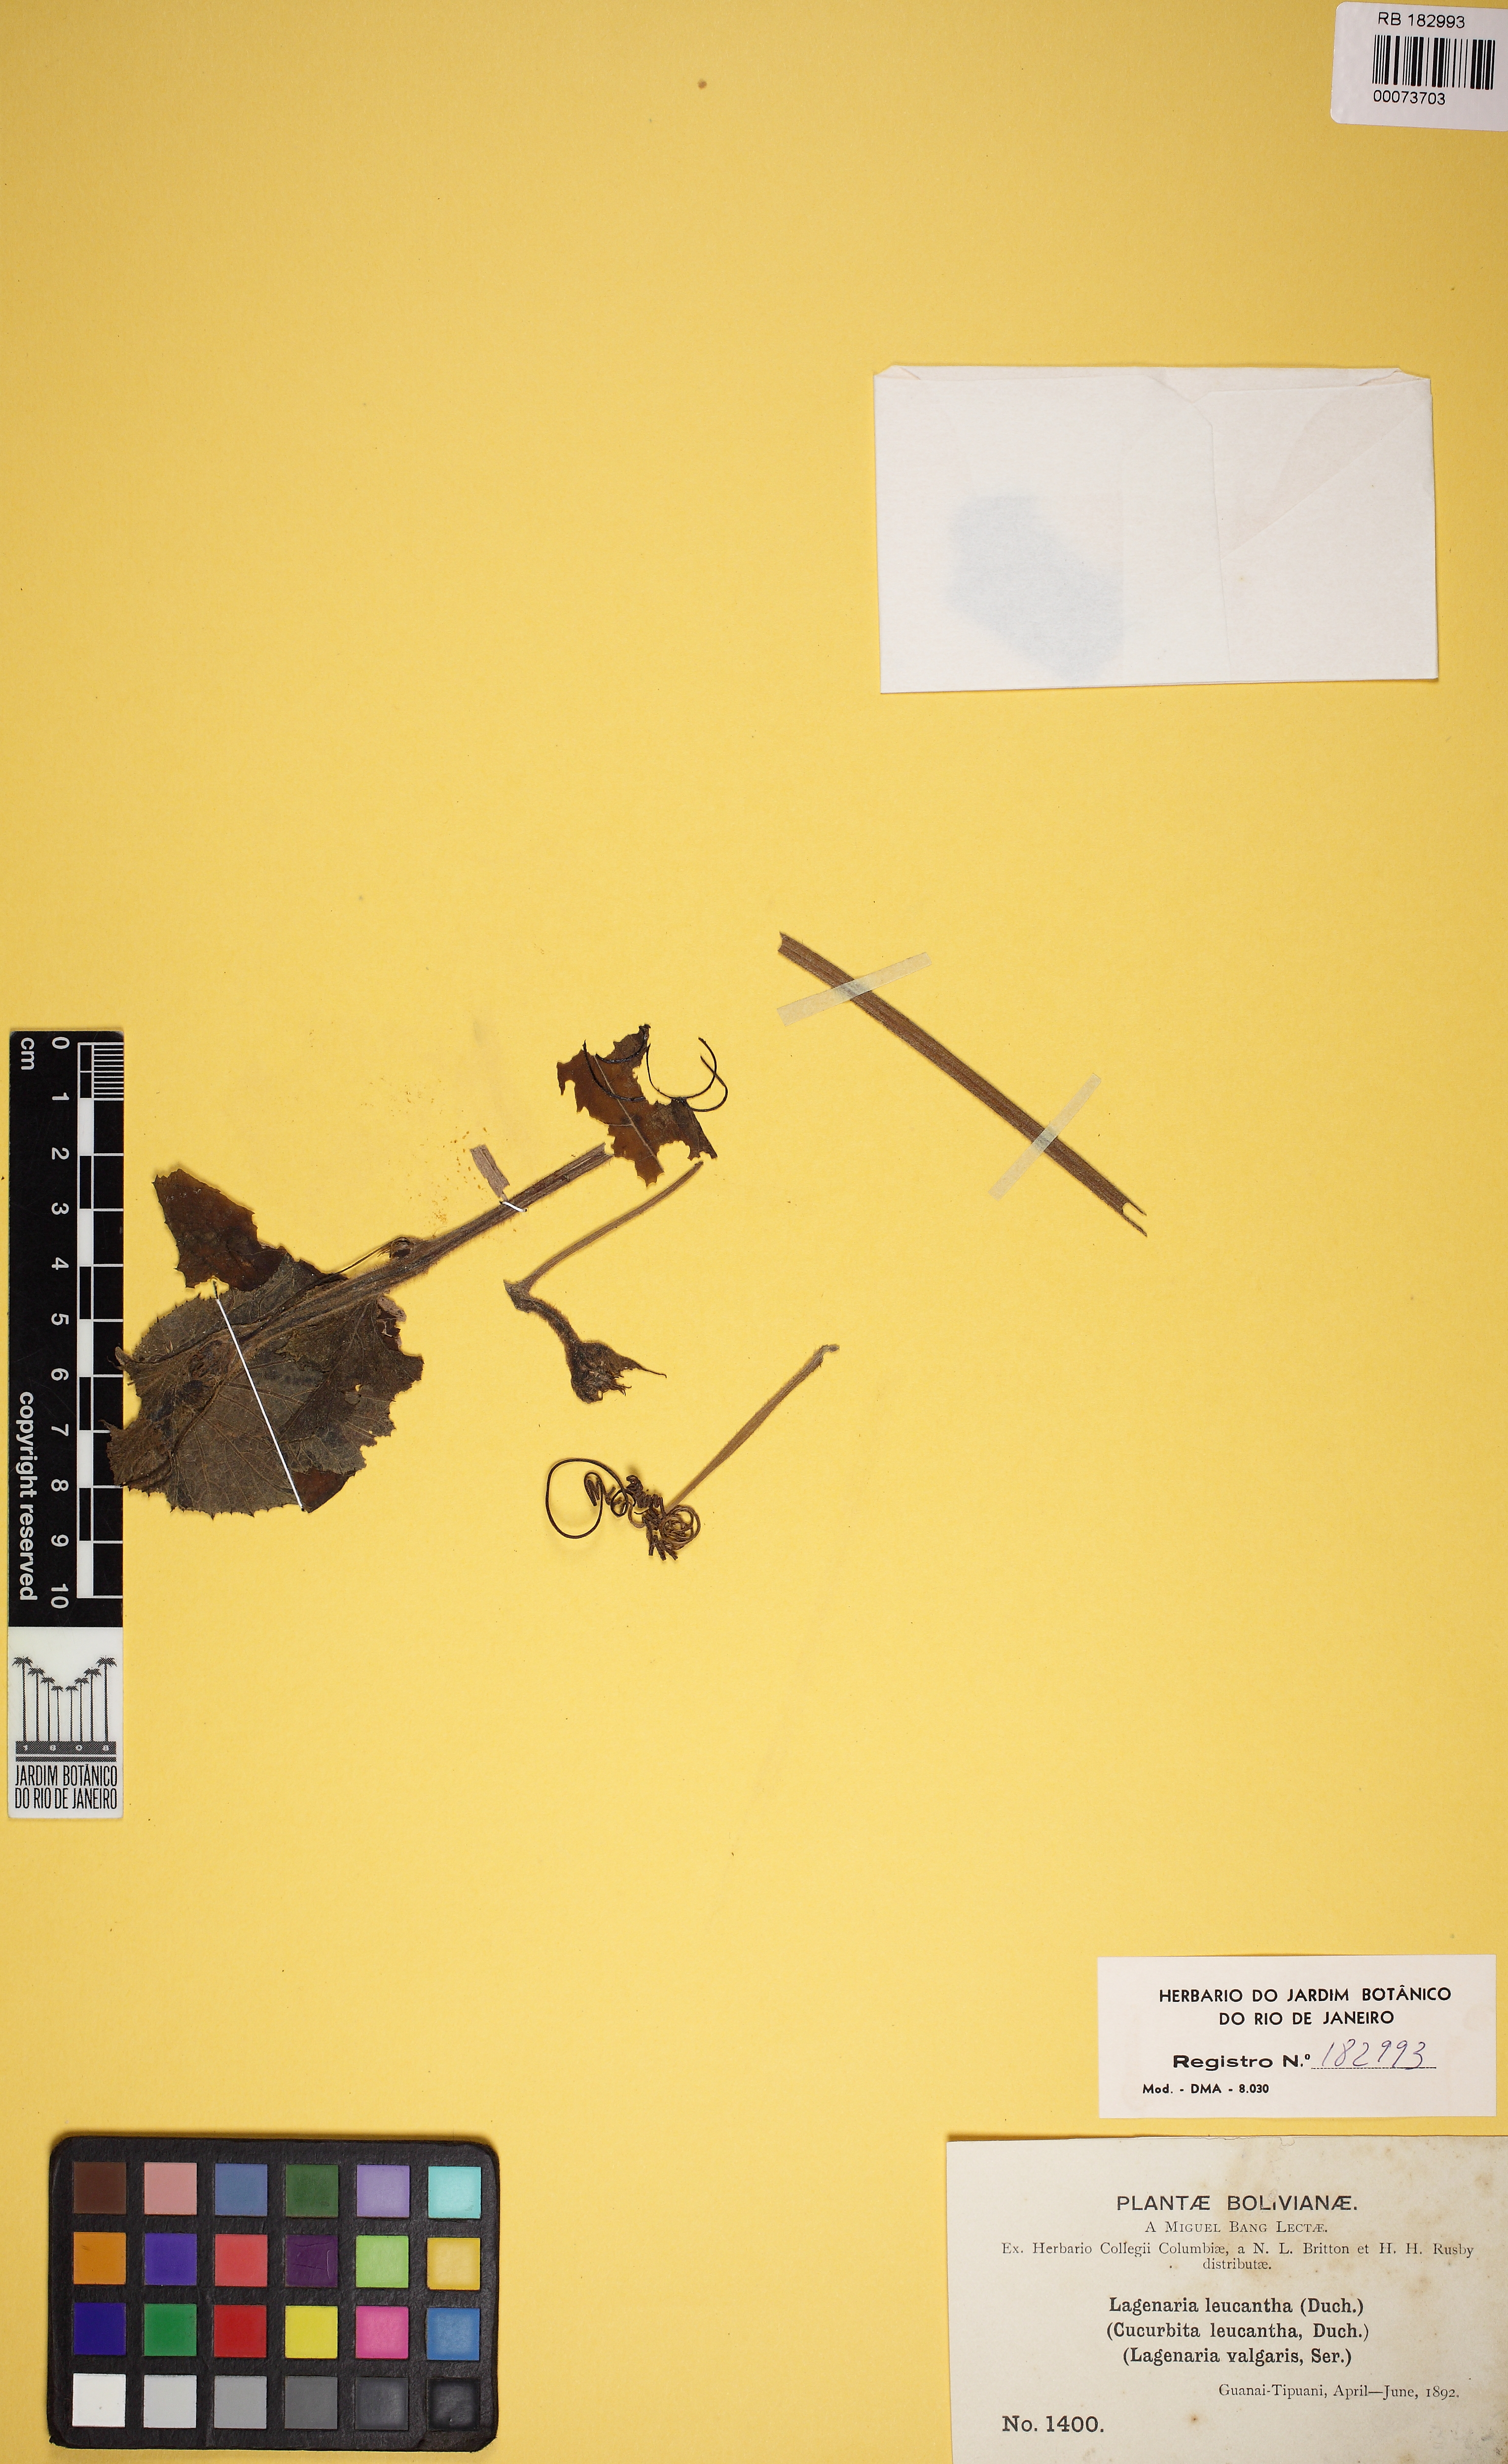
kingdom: Plantae
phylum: Tracheophyta
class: Magnoliopsida
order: Cucurbitales
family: Cucurbitaceae
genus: Lagenaria
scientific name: Lagenaria siceraria
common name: Bottle gourd
